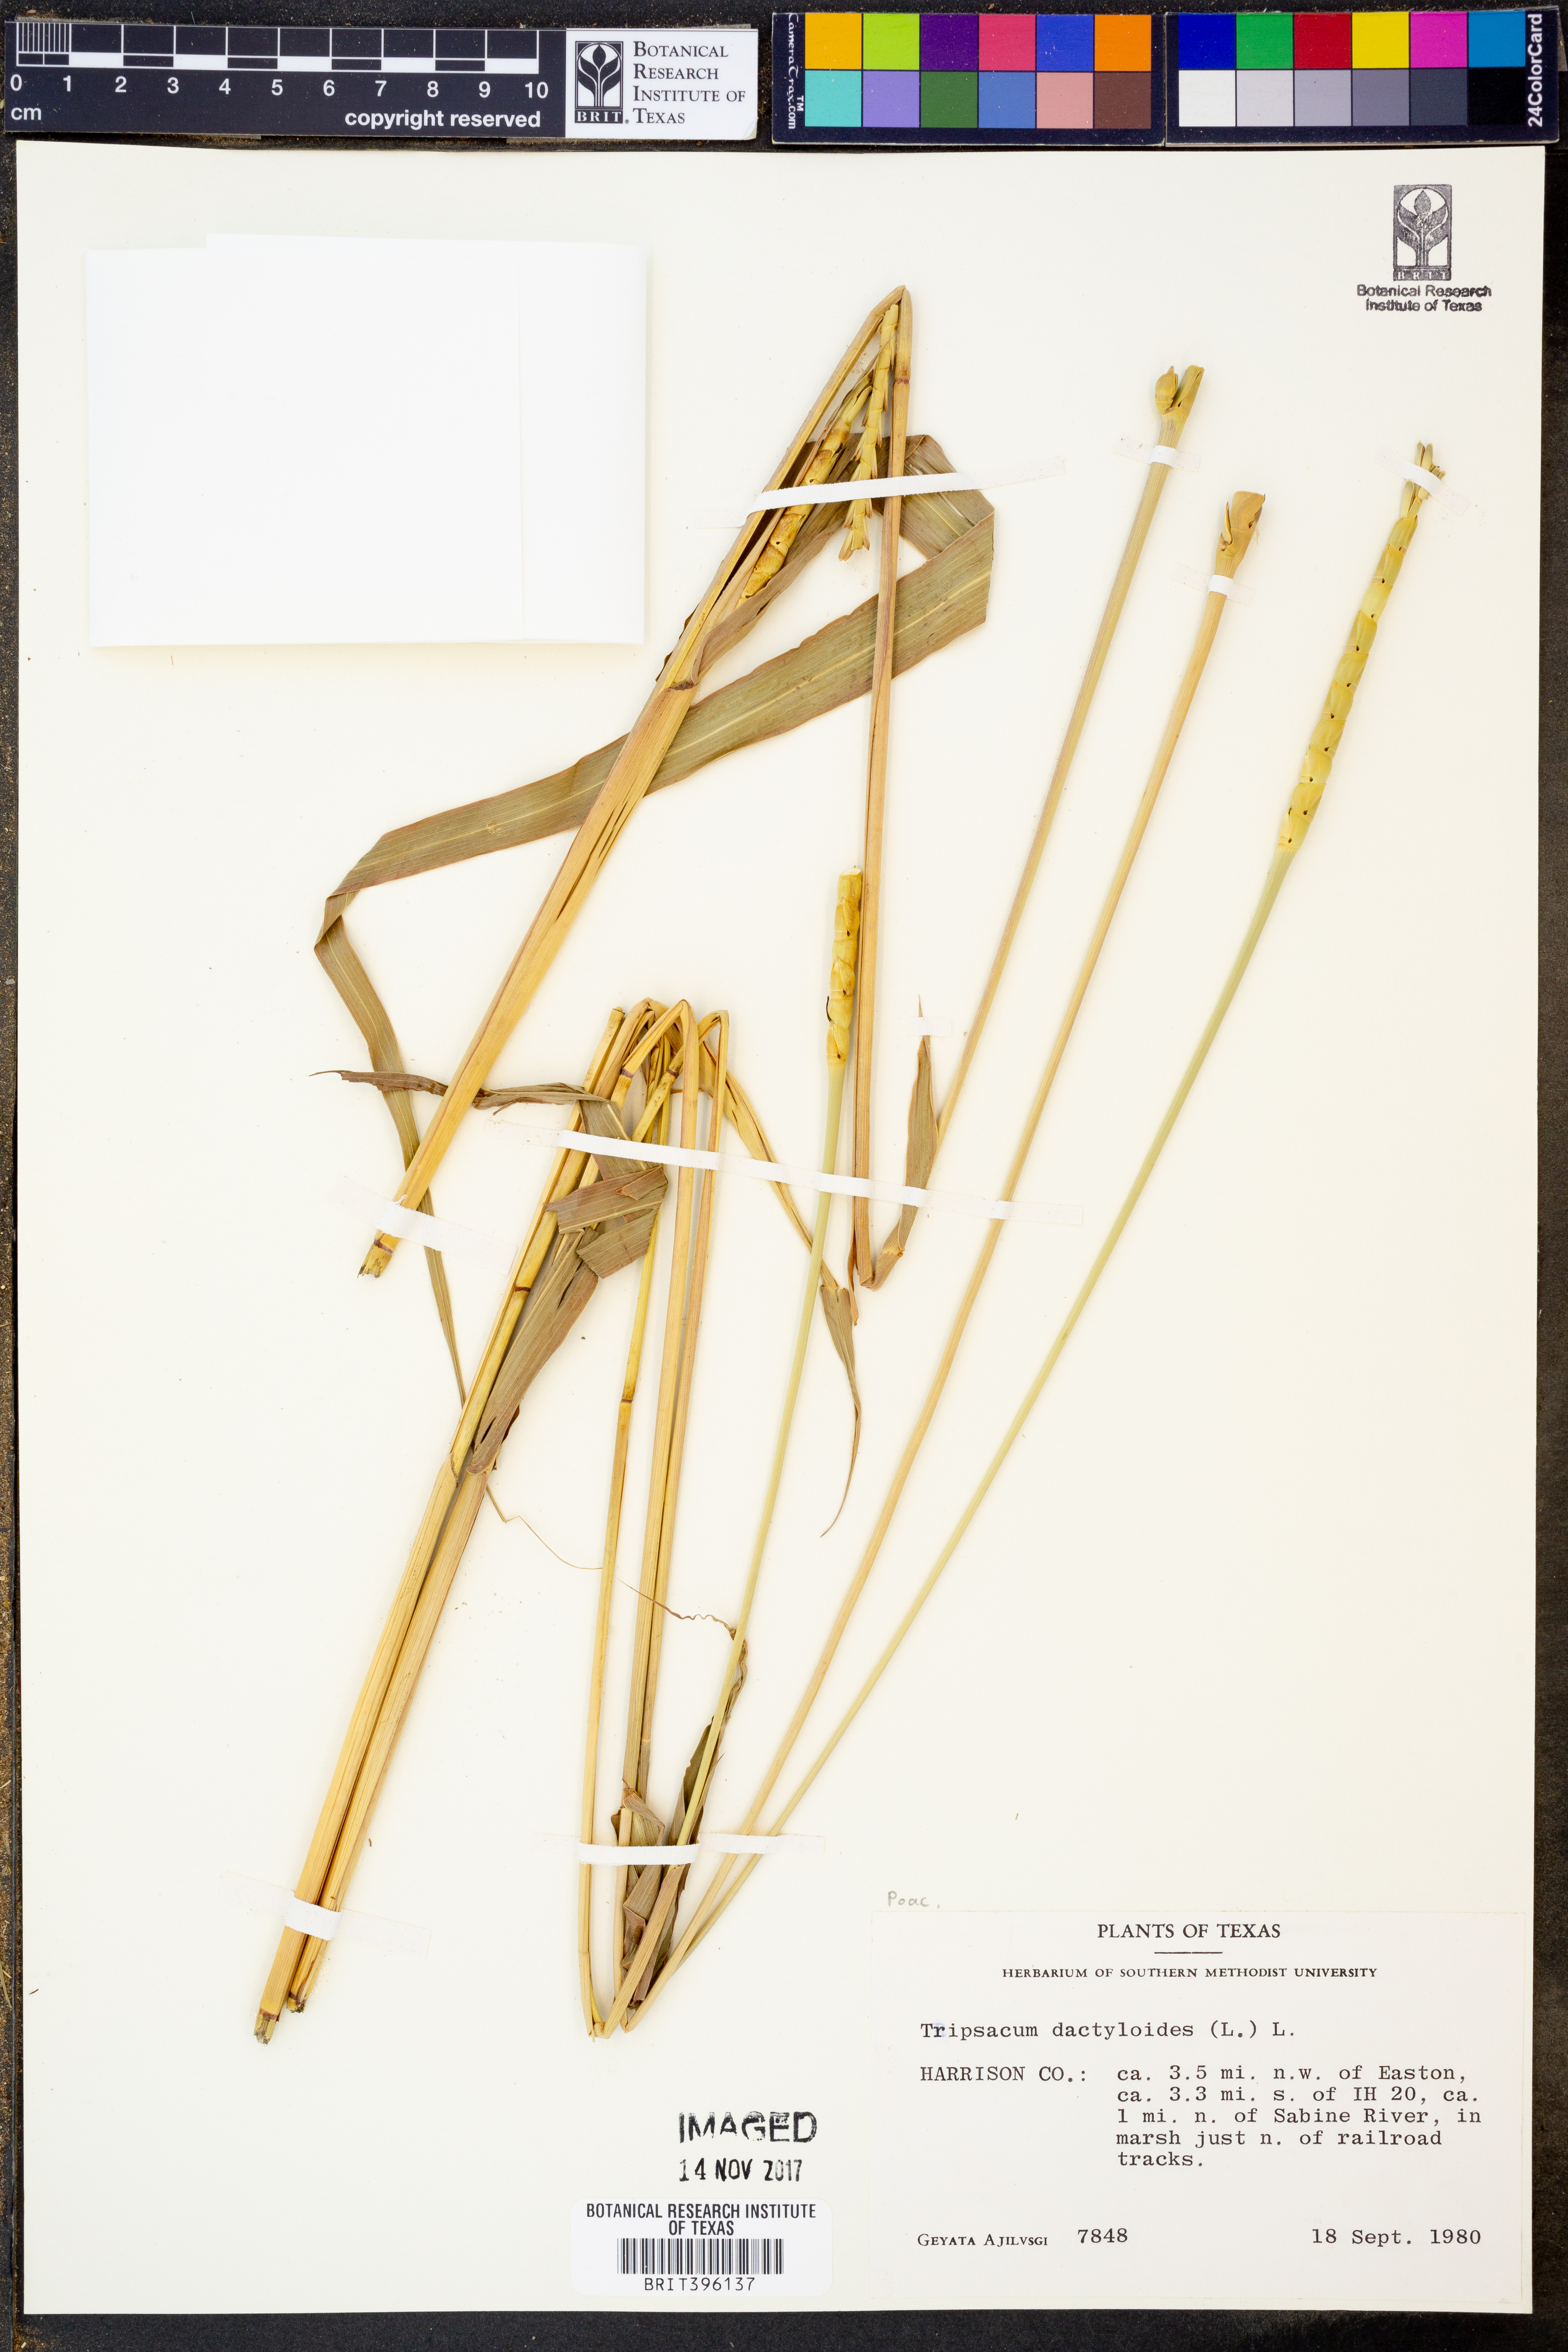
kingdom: Plantae
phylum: Tracheophyta
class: Liliopsida
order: Poales
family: Poaceae
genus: Tripsacum
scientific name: Tripsacum dactyloides
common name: Buffalo-grass
